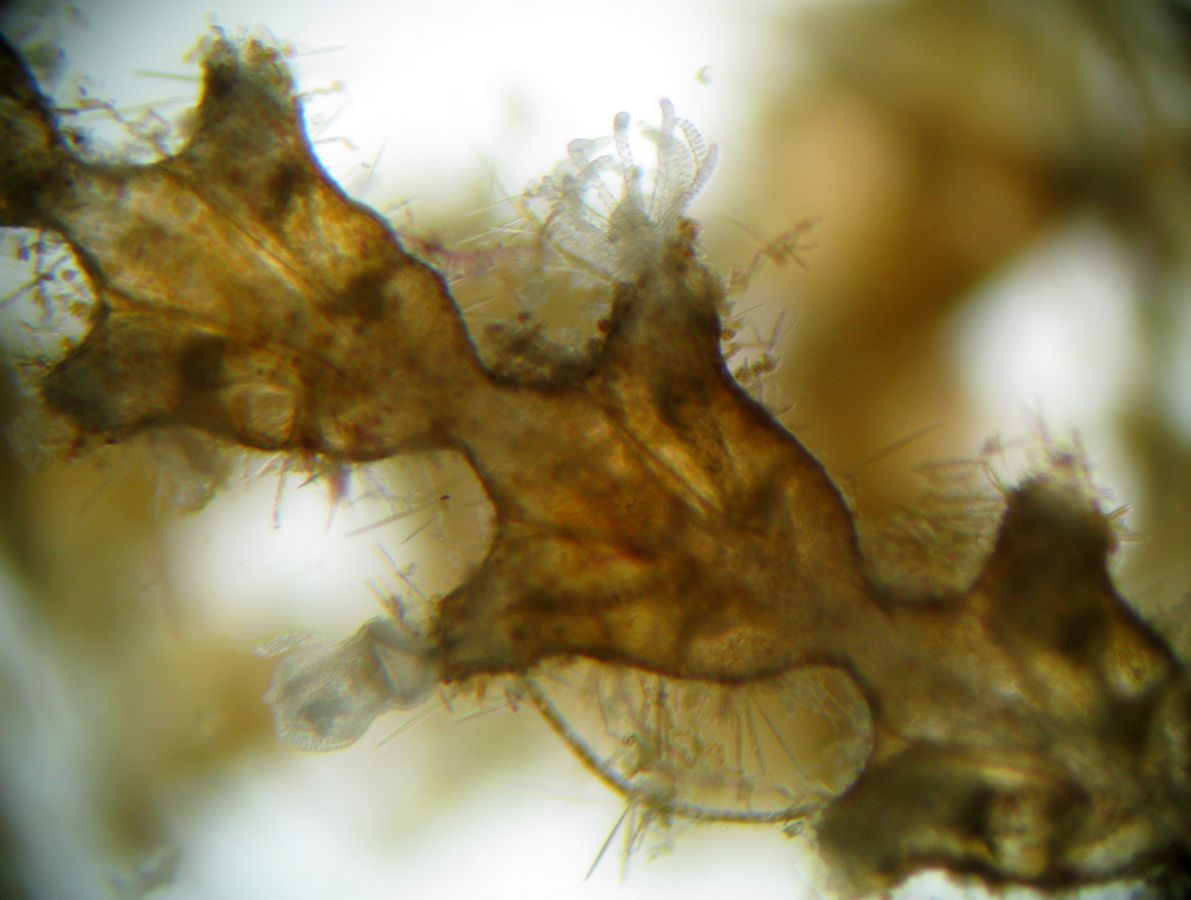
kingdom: Animalia
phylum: Cnidaria
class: Hydrozoa
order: Leptothecata
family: Sertulariidae
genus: Dynamena
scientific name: Dynamena pumila
